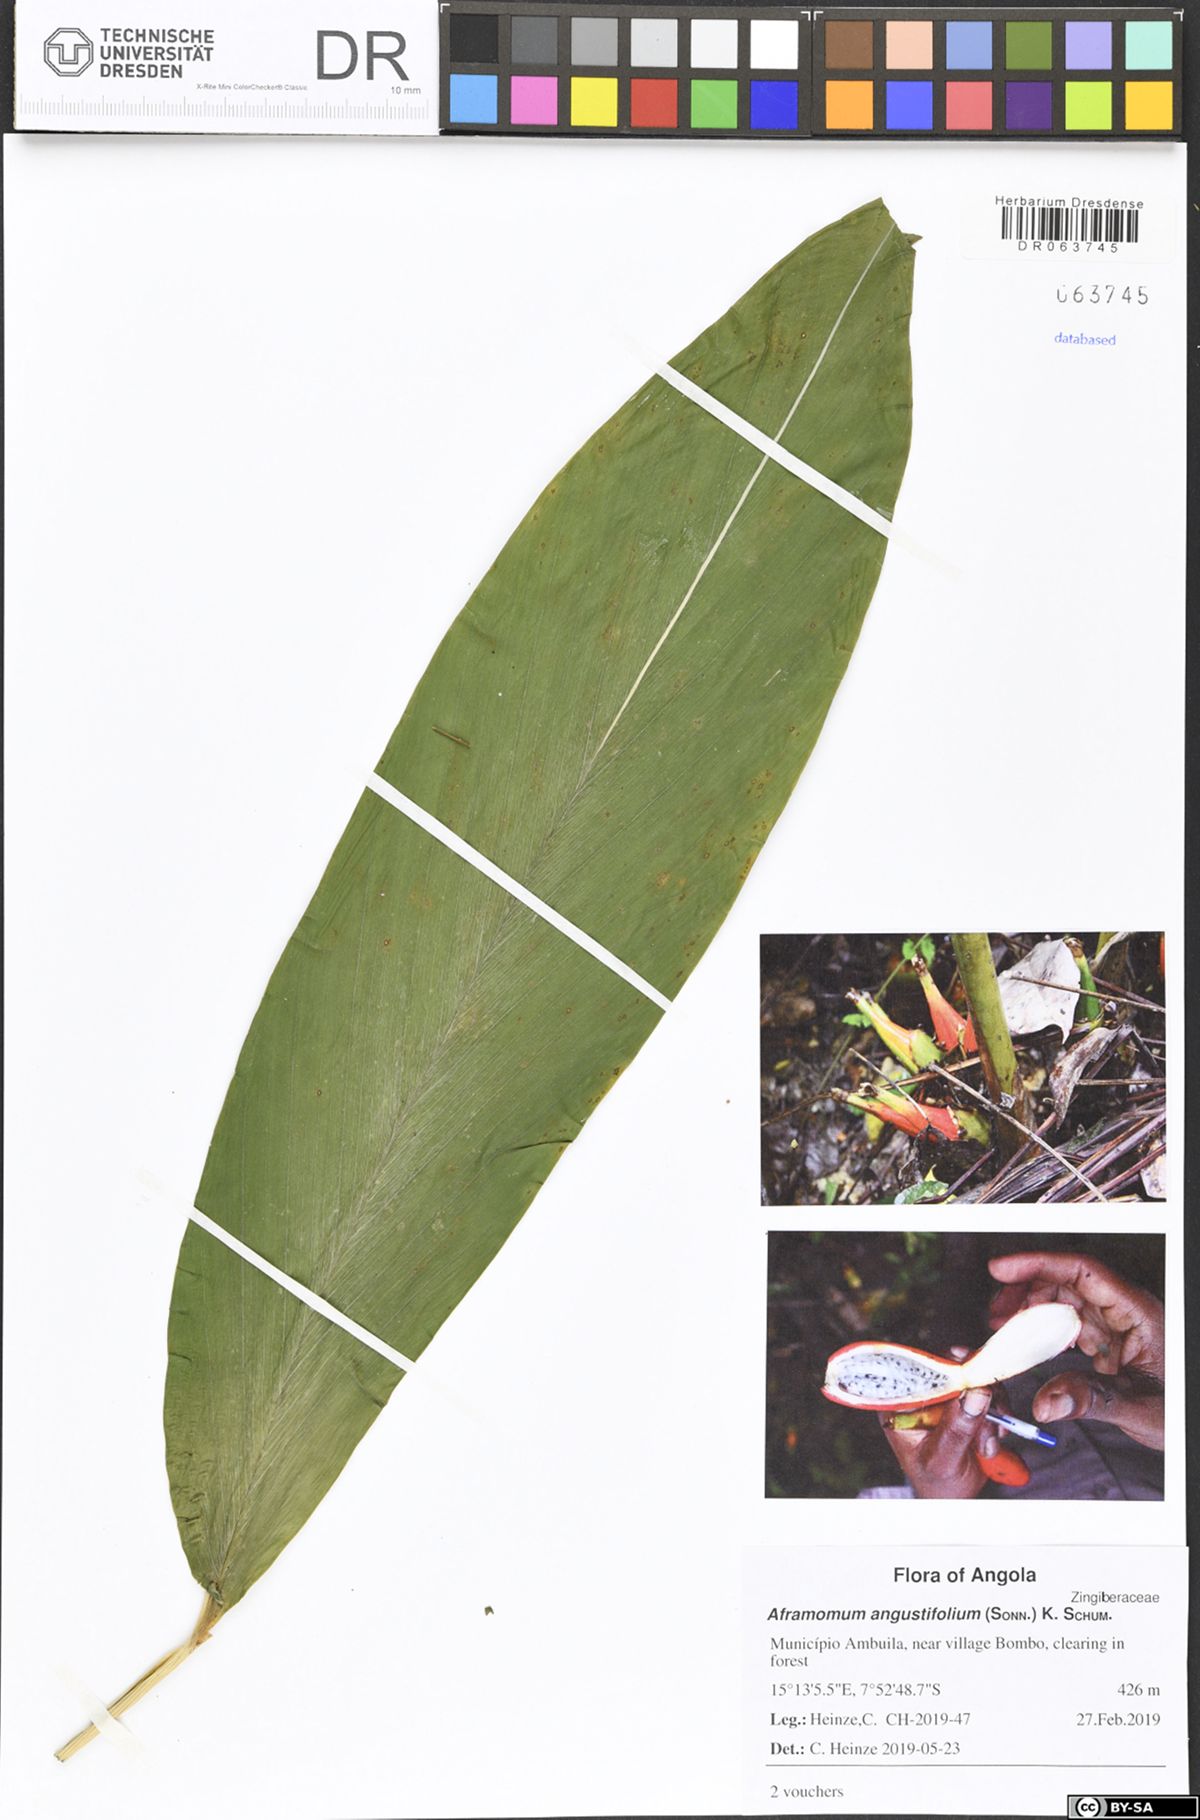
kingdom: Plantae
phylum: Tracheophyta
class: Liliopsida
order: Zingiberales
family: Zingiberaceae
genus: Aframomum
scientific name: Aframomum angustifolium
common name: Guinea grains
